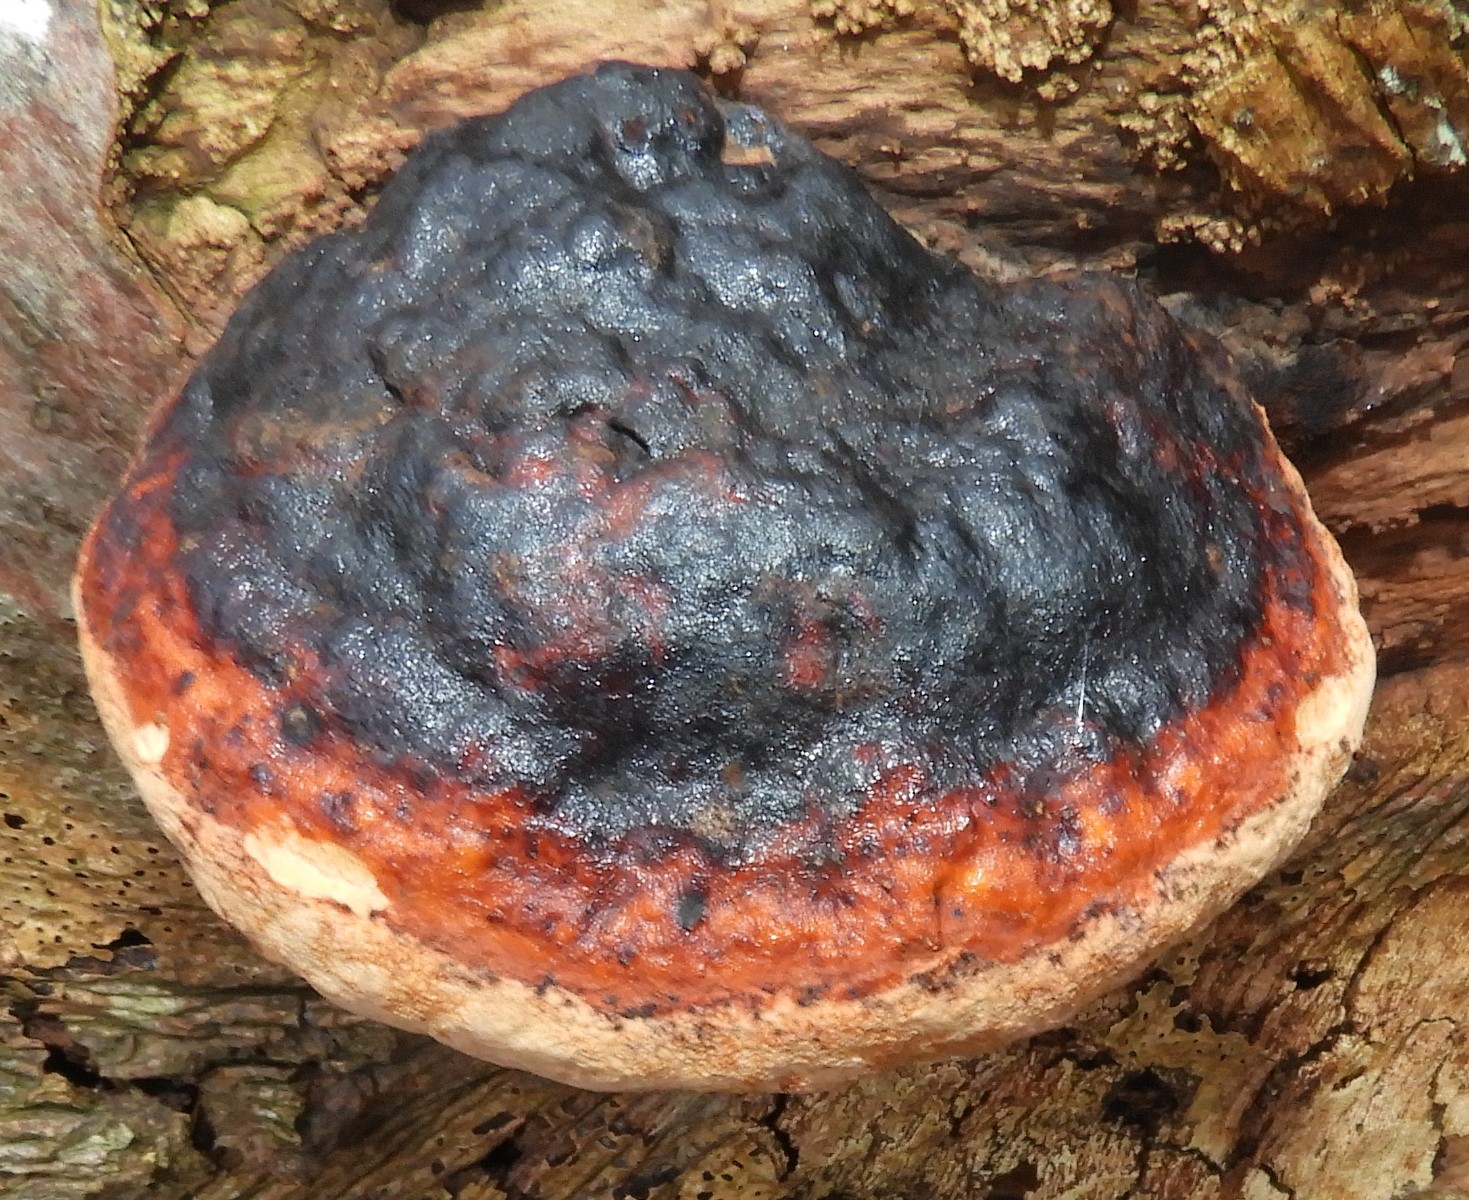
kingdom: Fungi
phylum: Basidiomycota
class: Agaricomycetes
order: Polyporales
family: Fomitopsidaceae
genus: Fomitopsis
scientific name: Fomitopsis pinicola
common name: randbæltet hovporesvamp
